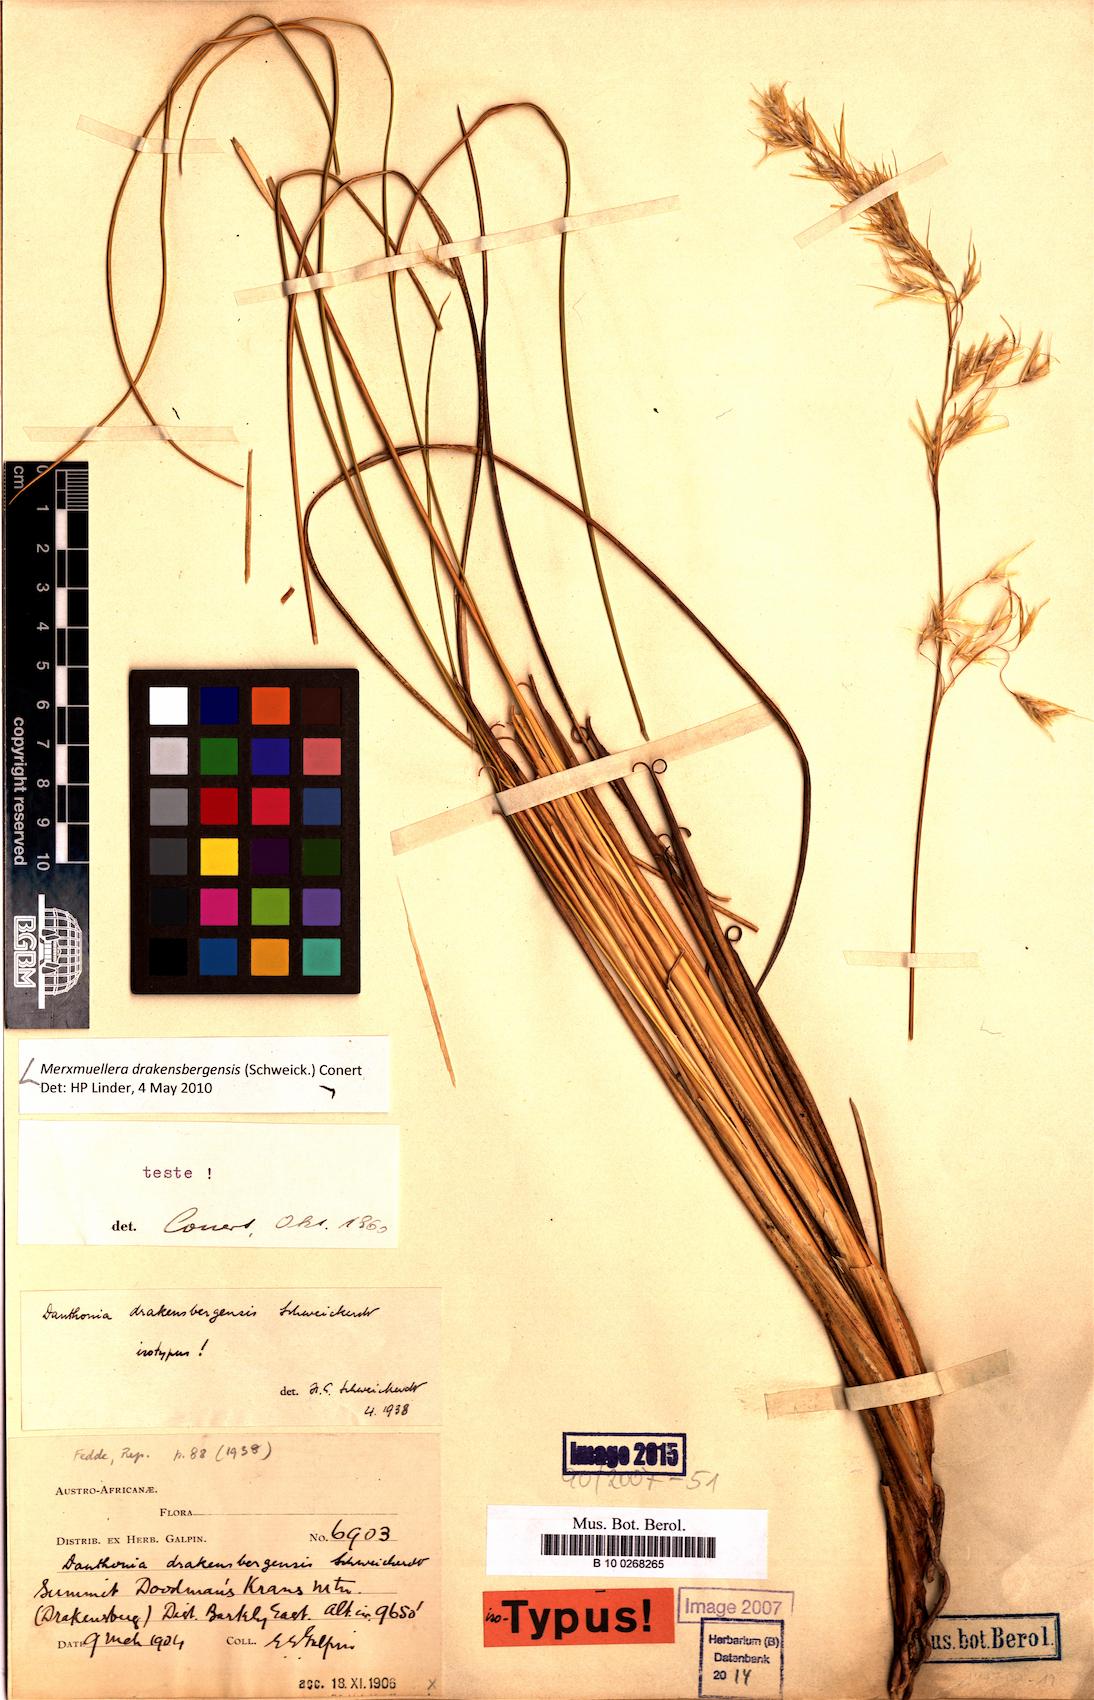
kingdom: Plantae
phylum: Tracheophyta
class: Liliopsida
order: Poales
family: Poaceae
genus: Merxmuellera
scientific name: Merxmuellera drakensbergensis
